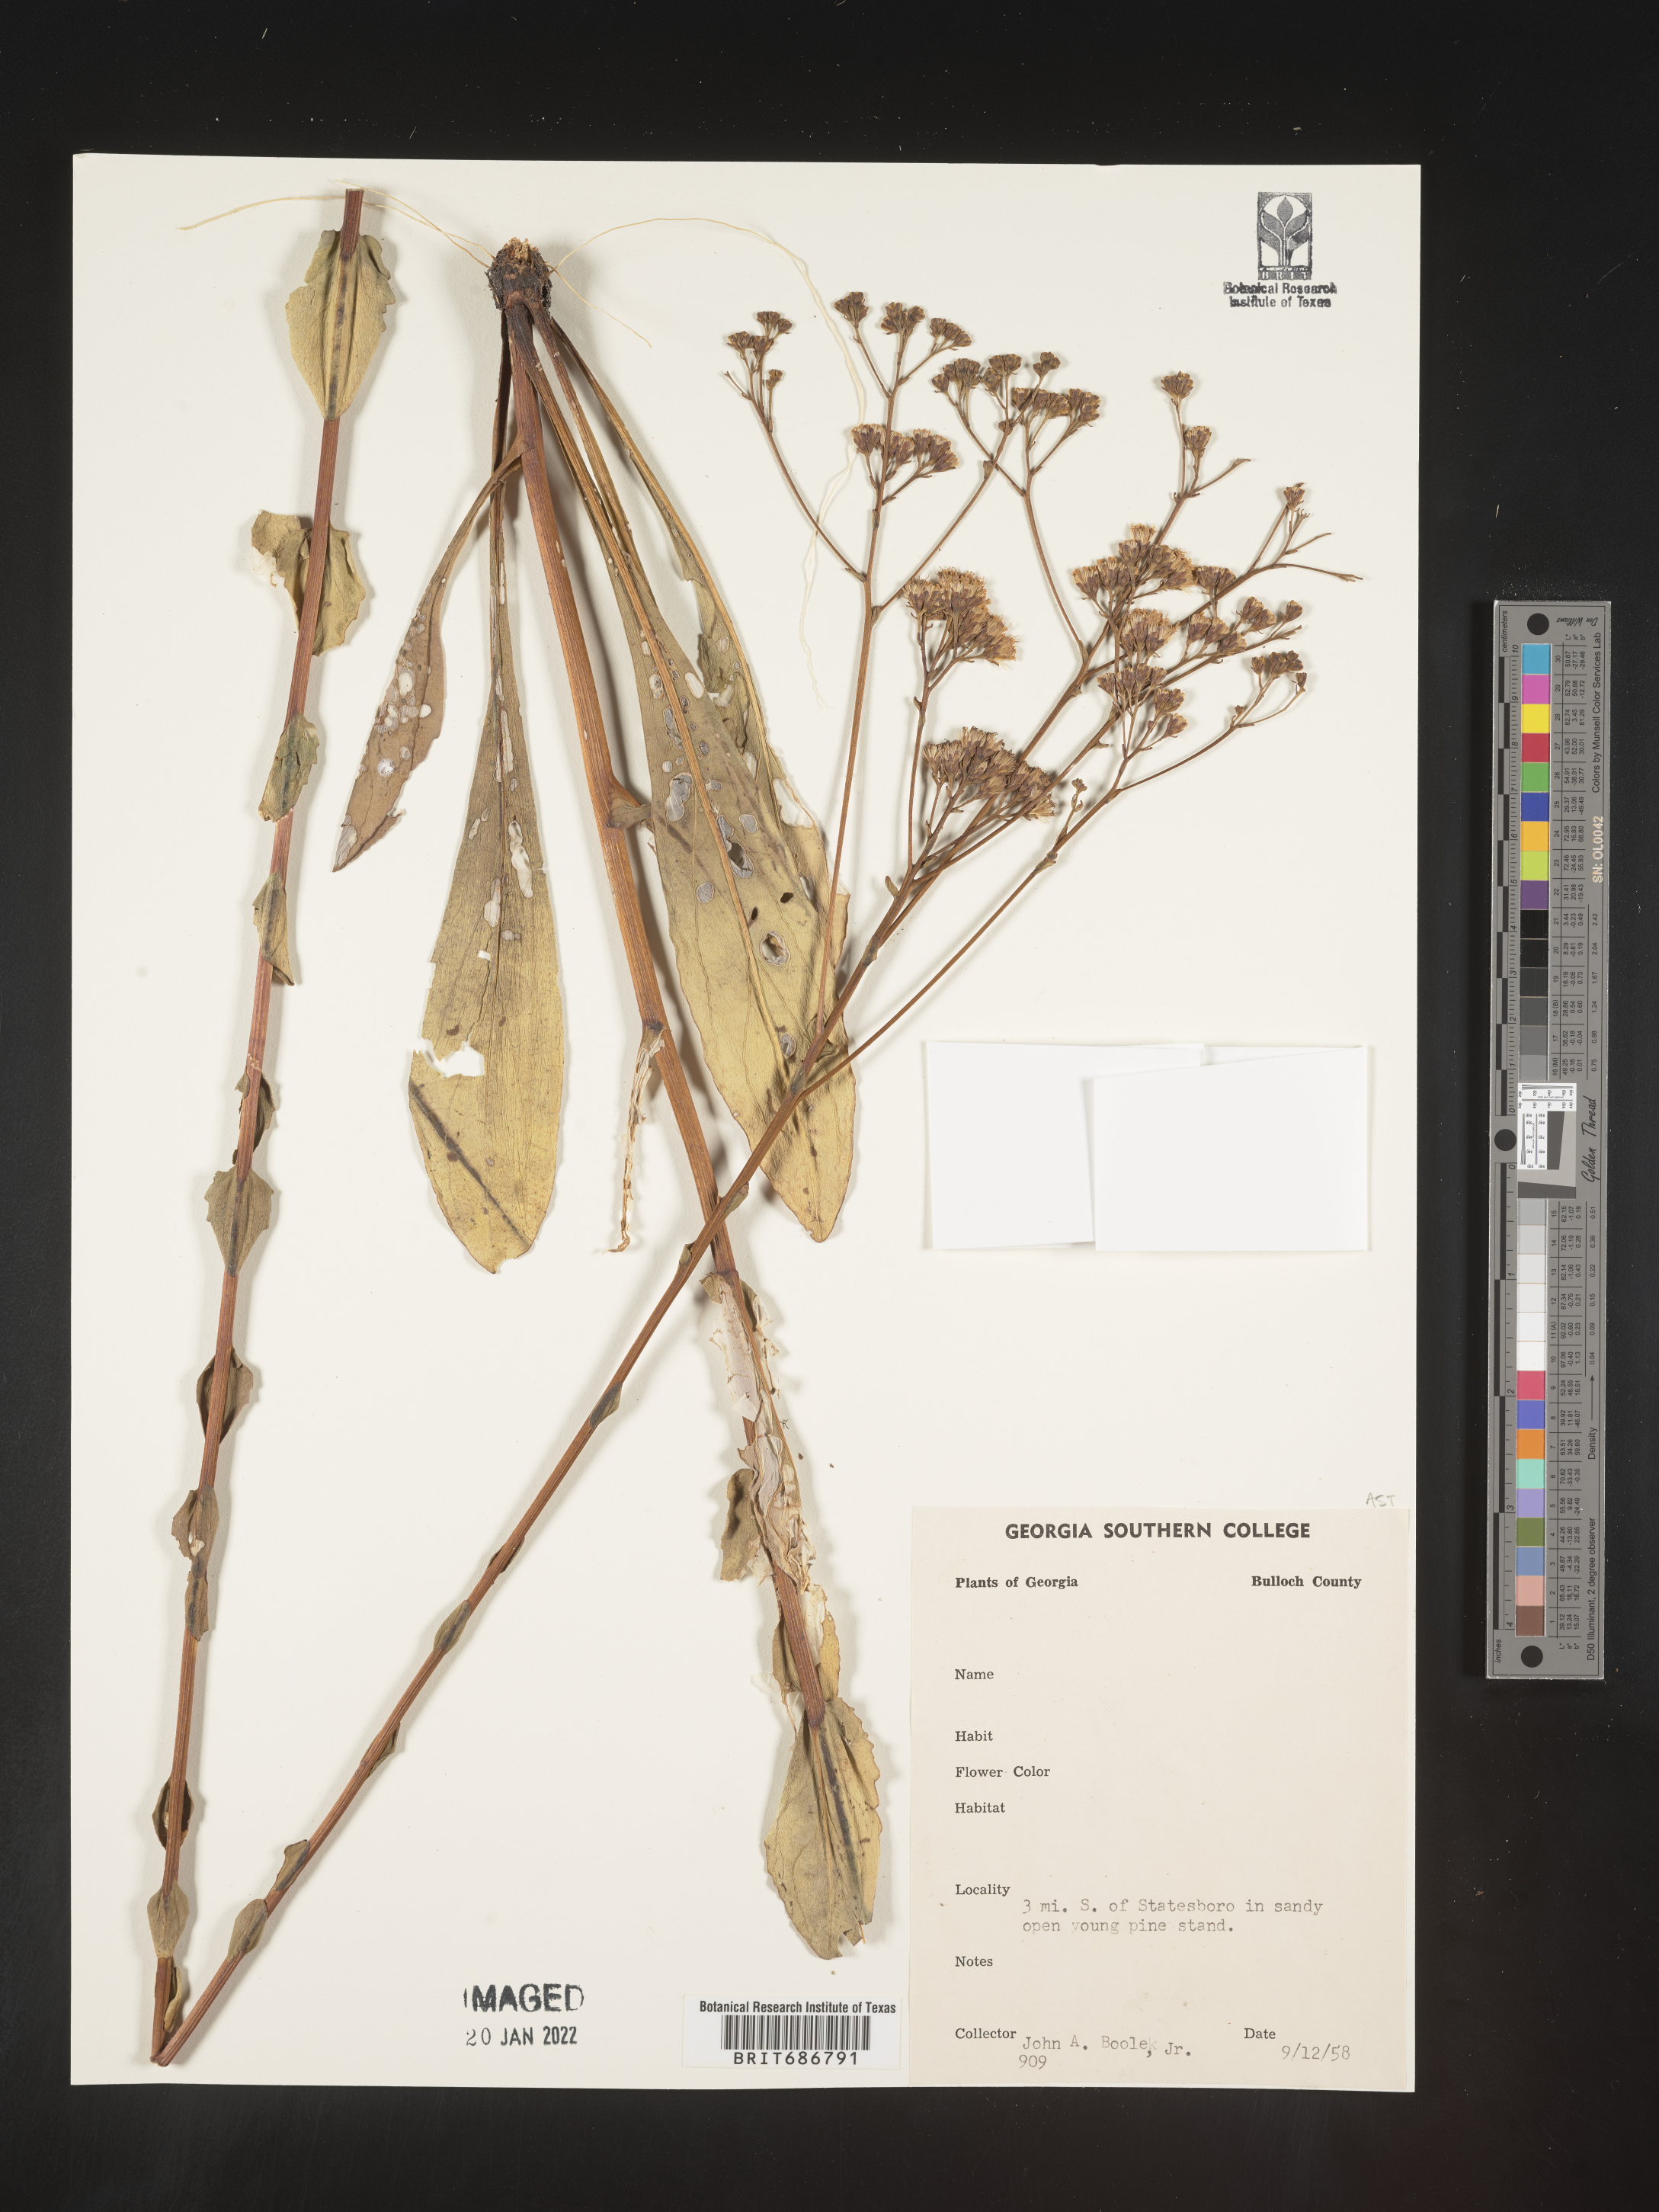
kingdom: Plantae
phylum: Tracheophyta
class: Magnoliopsida
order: Asterales
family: Asteraceae
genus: Carphephorus
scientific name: Carphephorus
